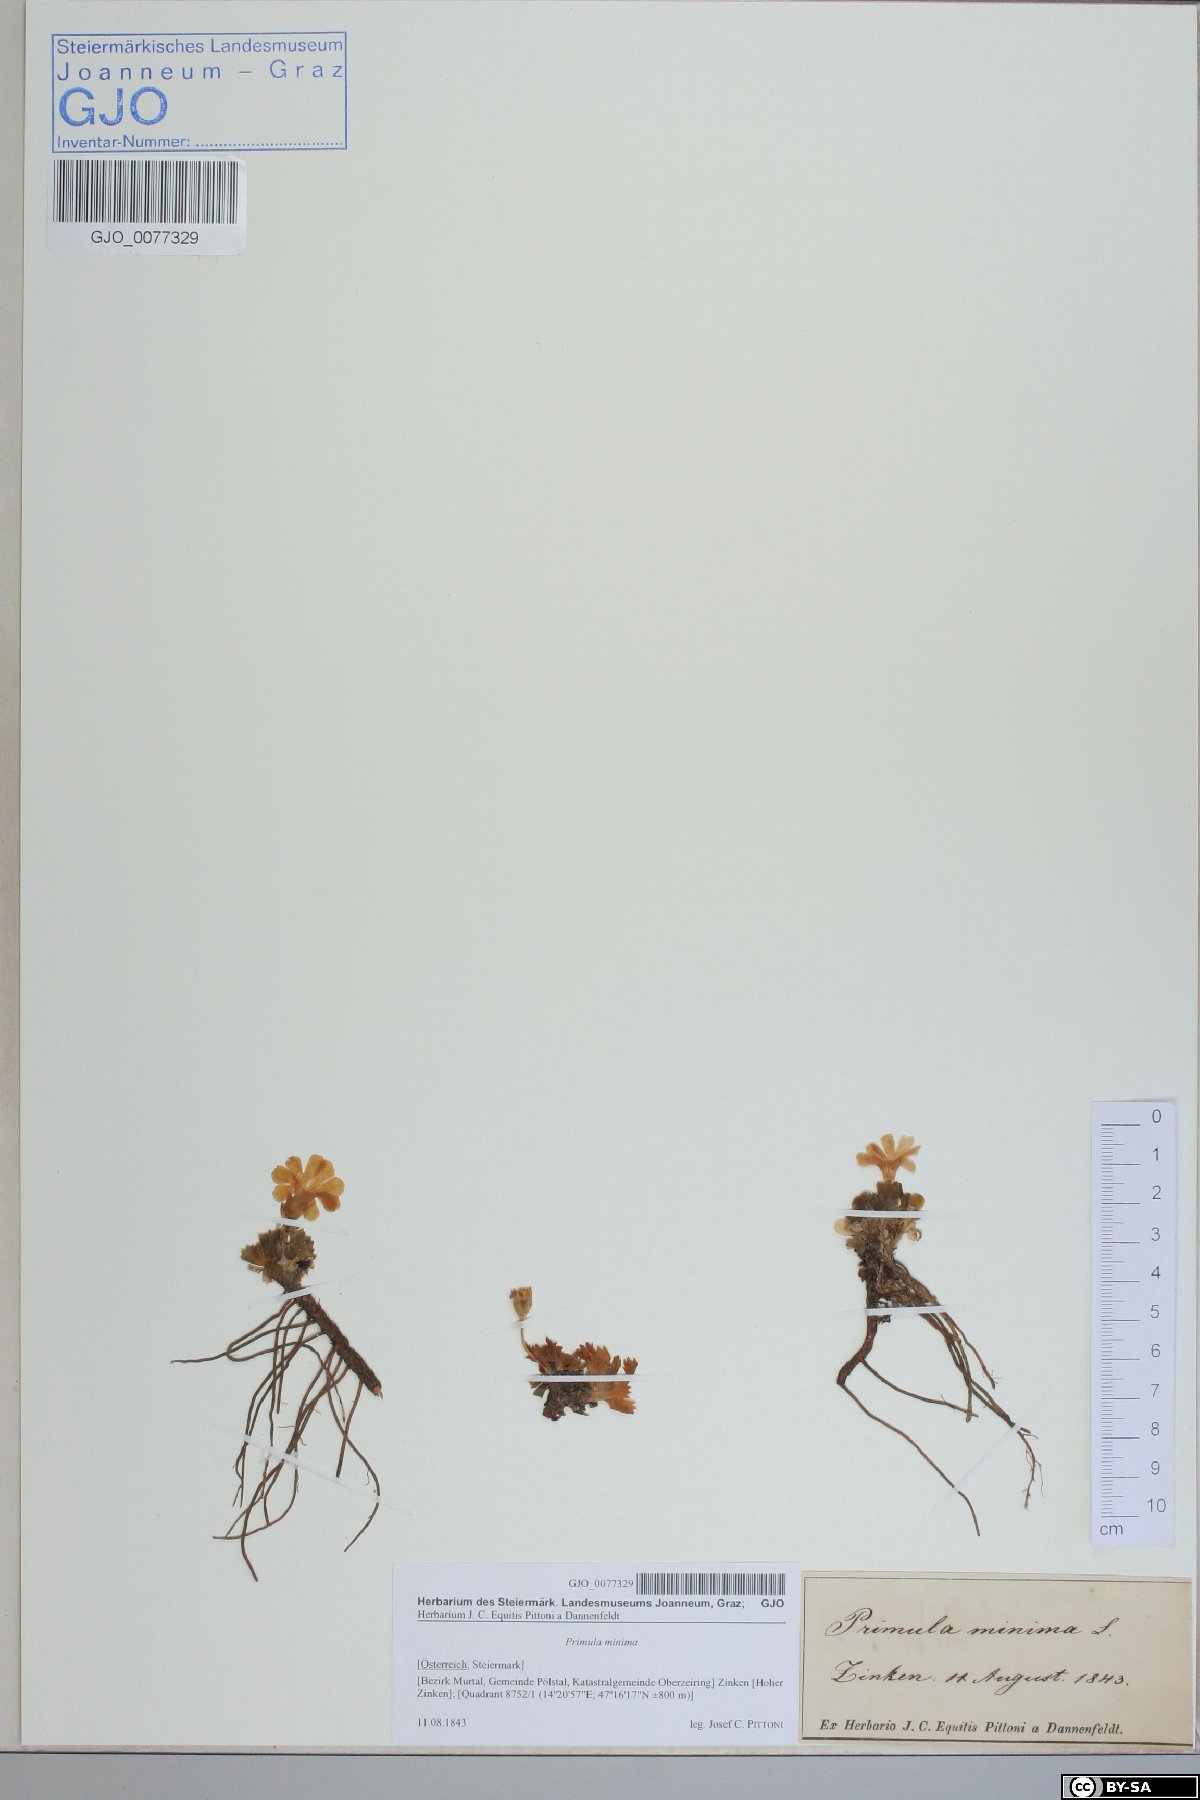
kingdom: Plantae
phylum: Tracheophyta
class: Magnoliopsida
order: Ericales
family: Primulaceae
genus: Primula
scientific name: Primula minima
